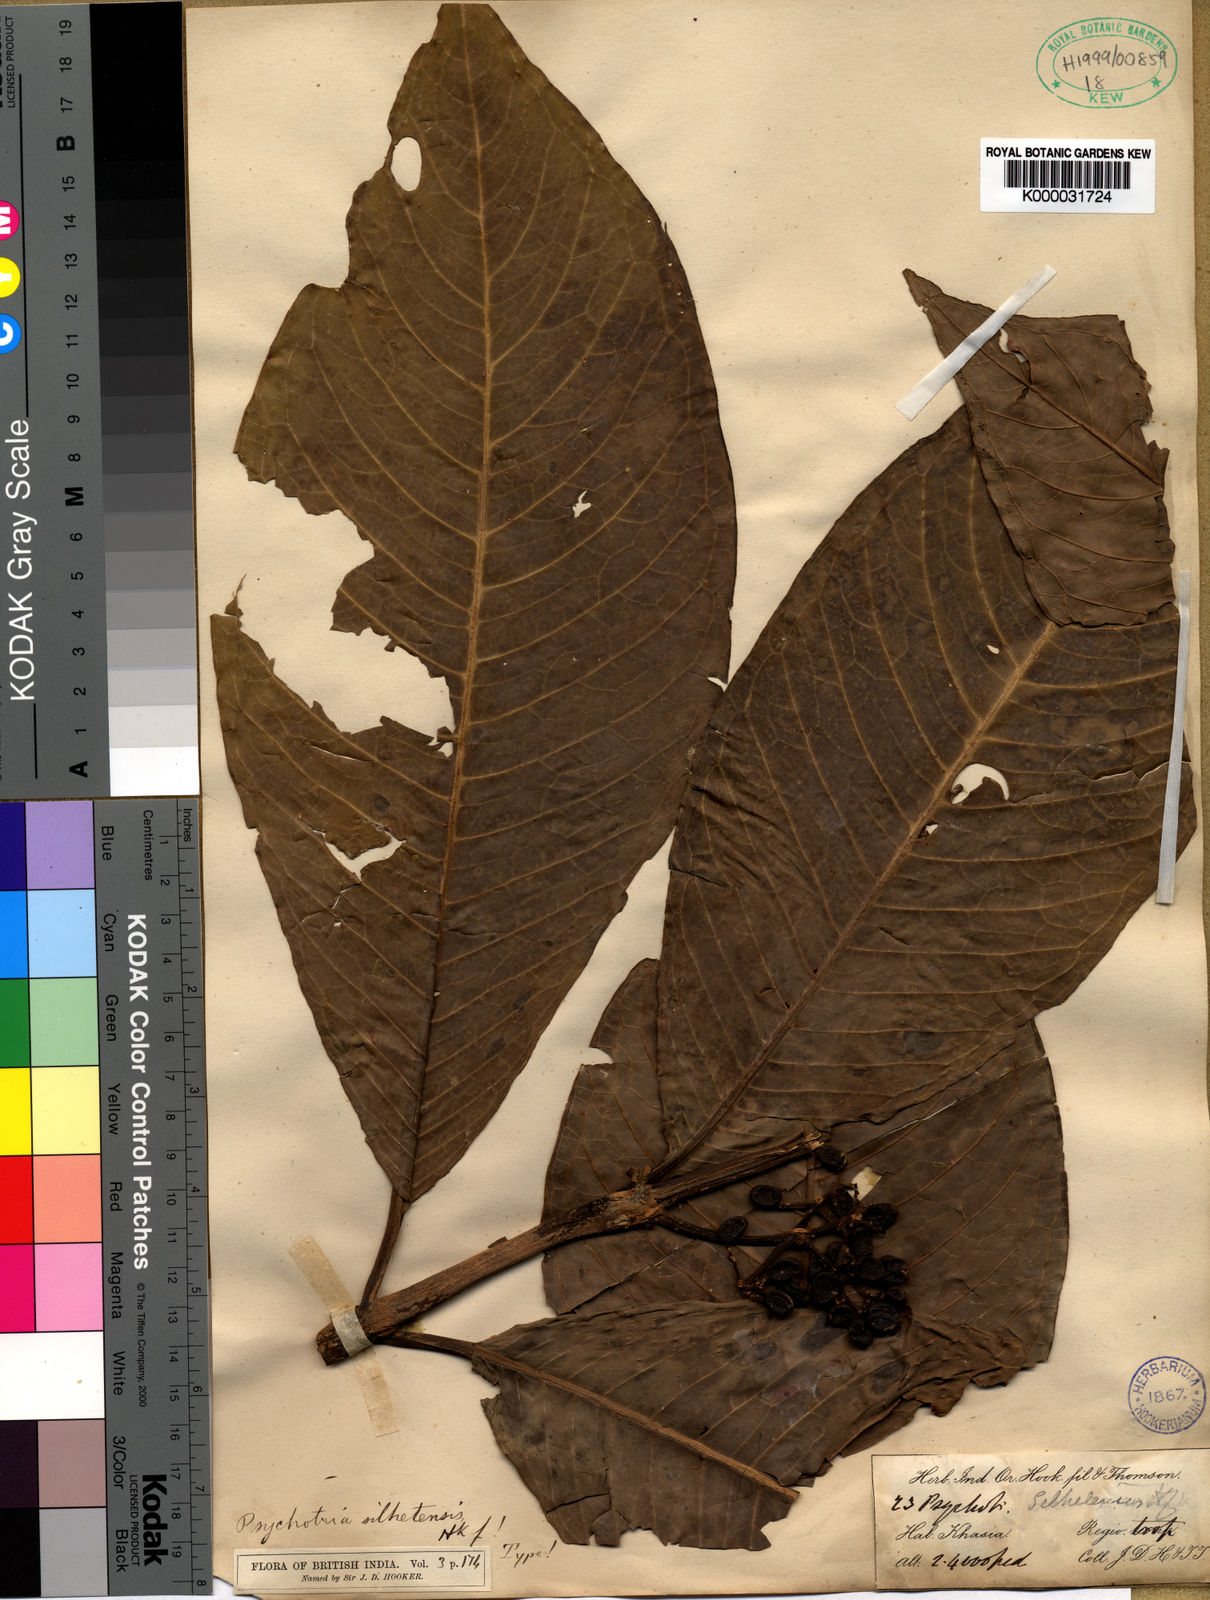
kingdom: Plantae
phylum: Tracheophyta
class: Magnoliopsida
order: Gentianales
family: Rubiaceae
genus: Psychotria
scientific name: Psychotria silhetensis
